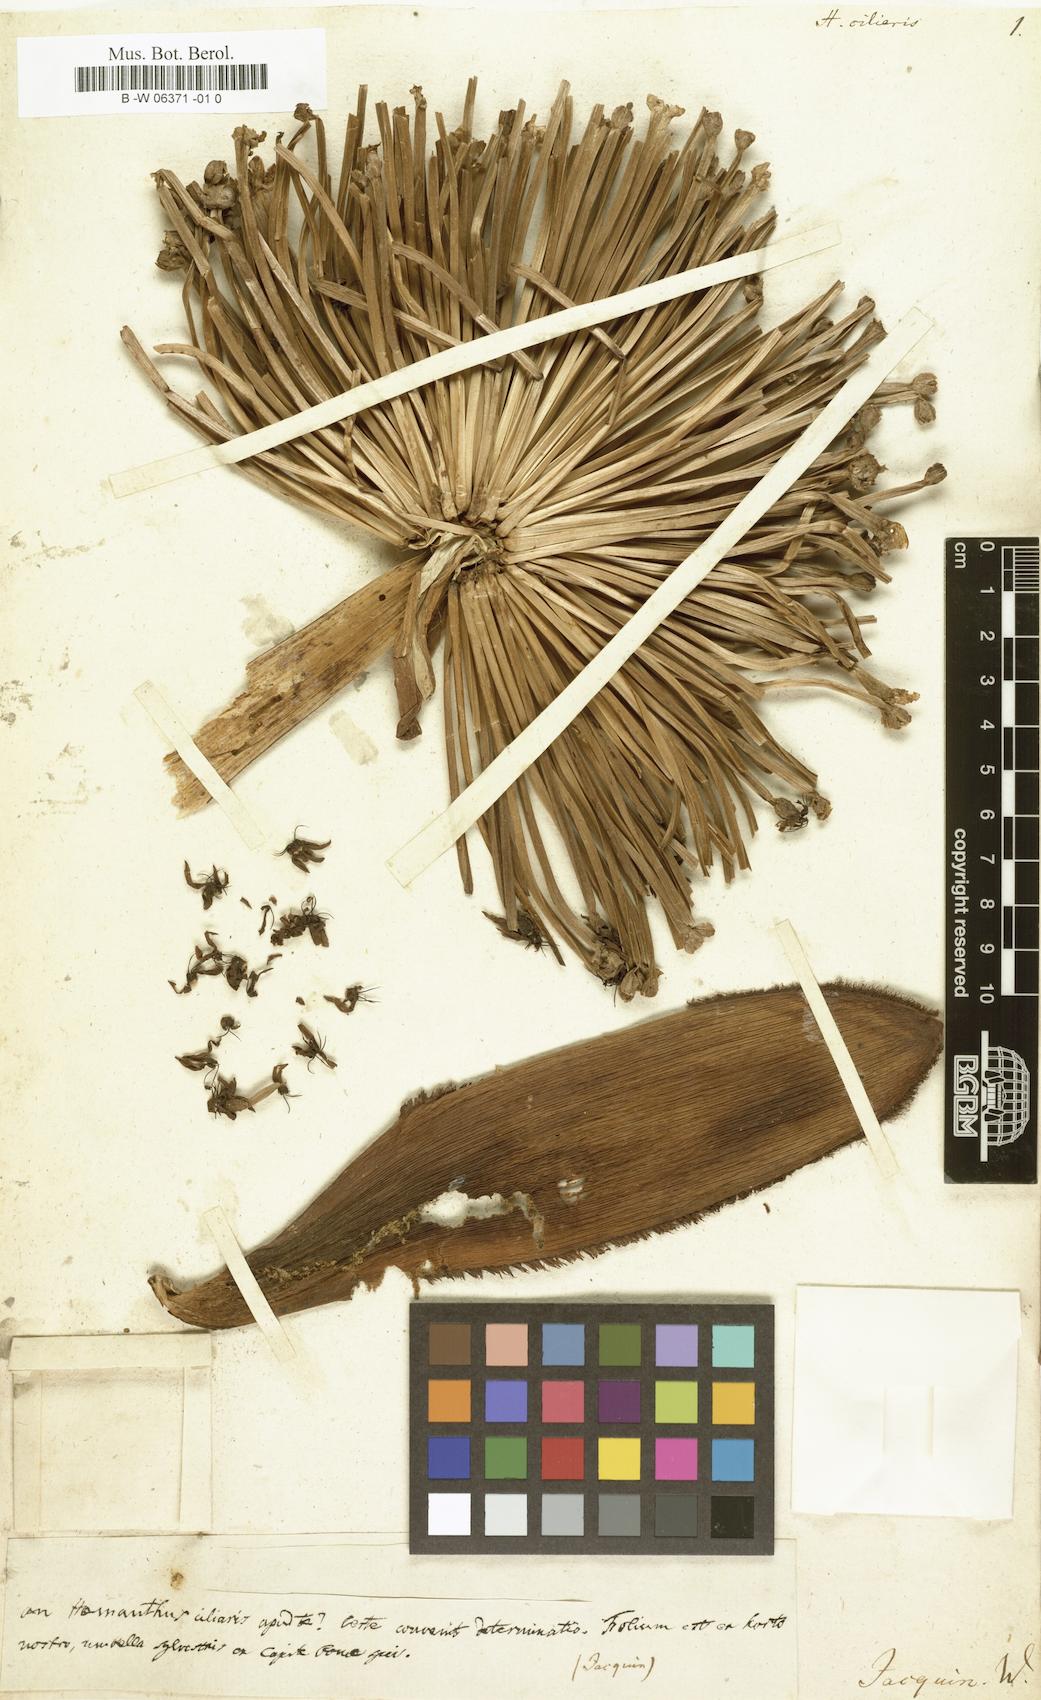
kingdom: Plantae
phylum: Tracheophyta
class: Liliopsida
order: Asparagales
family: Amaryllidaceae
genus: Boophone
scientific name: Boophone disticha
